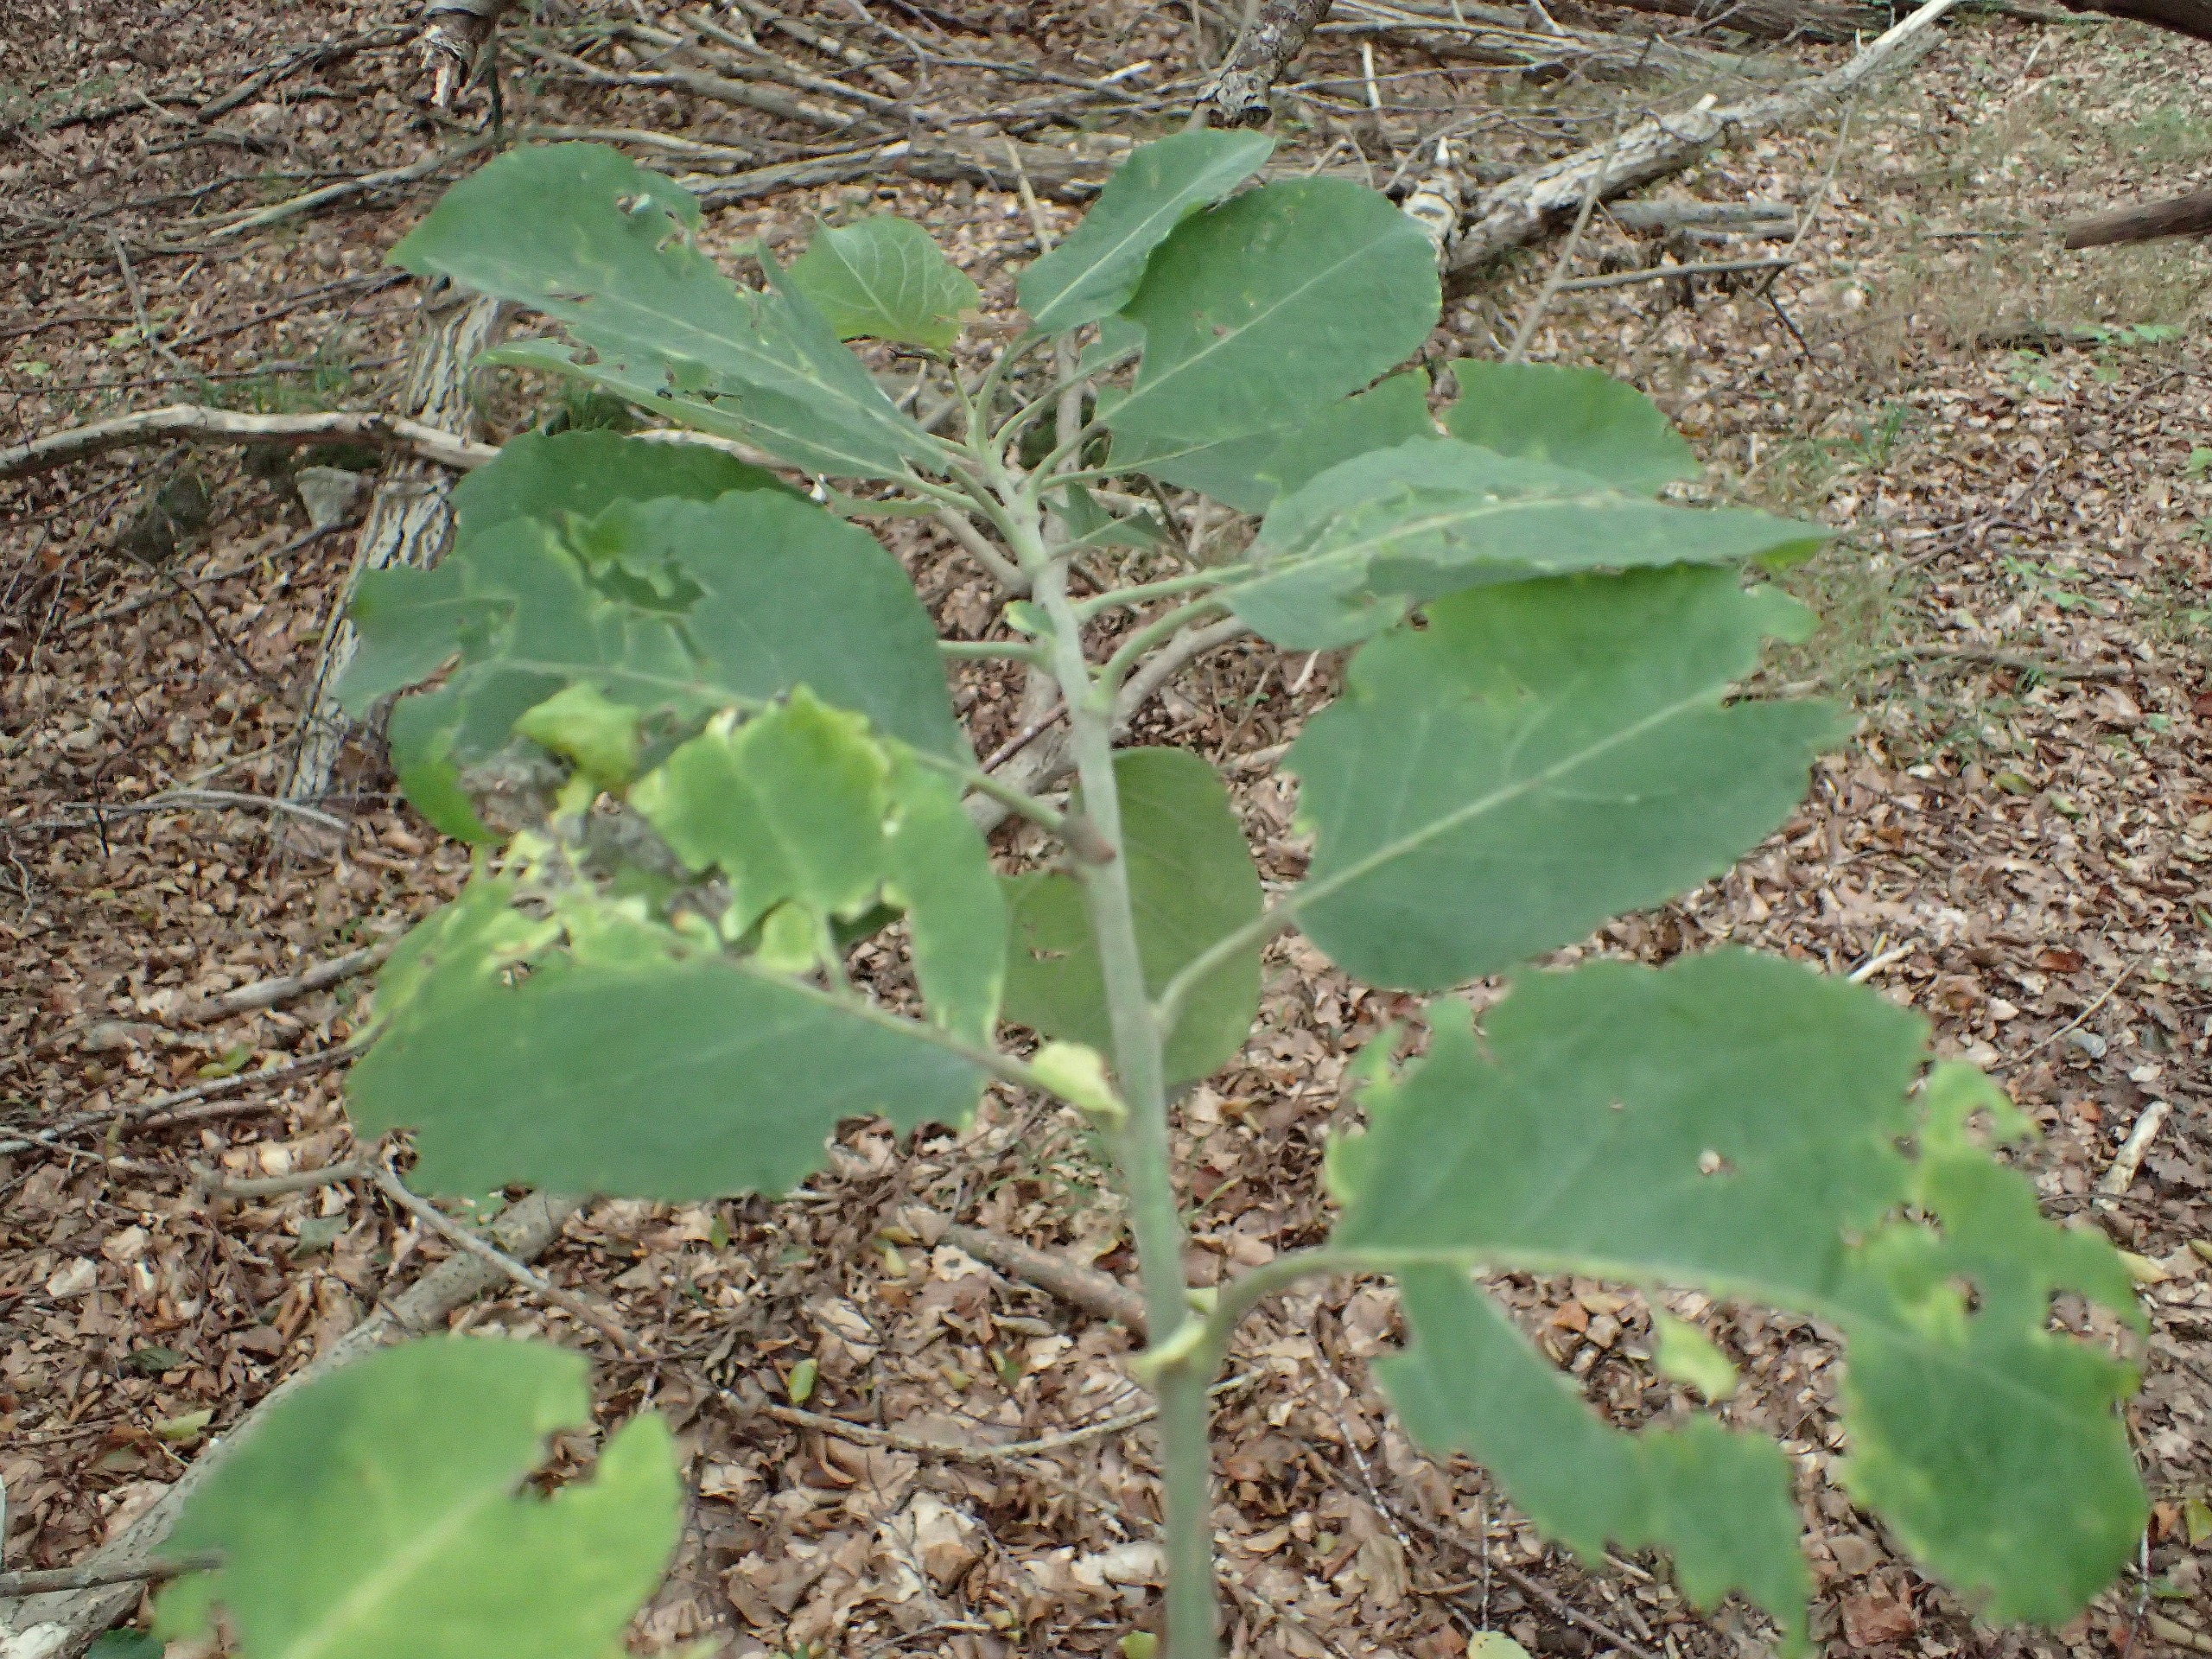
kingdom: Plantae
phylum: Tracheophyta
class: Magnoliopsida
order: Malpighiales
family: Salicaceae
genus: Salix
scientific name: Salix caprea
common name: Selje-pil
